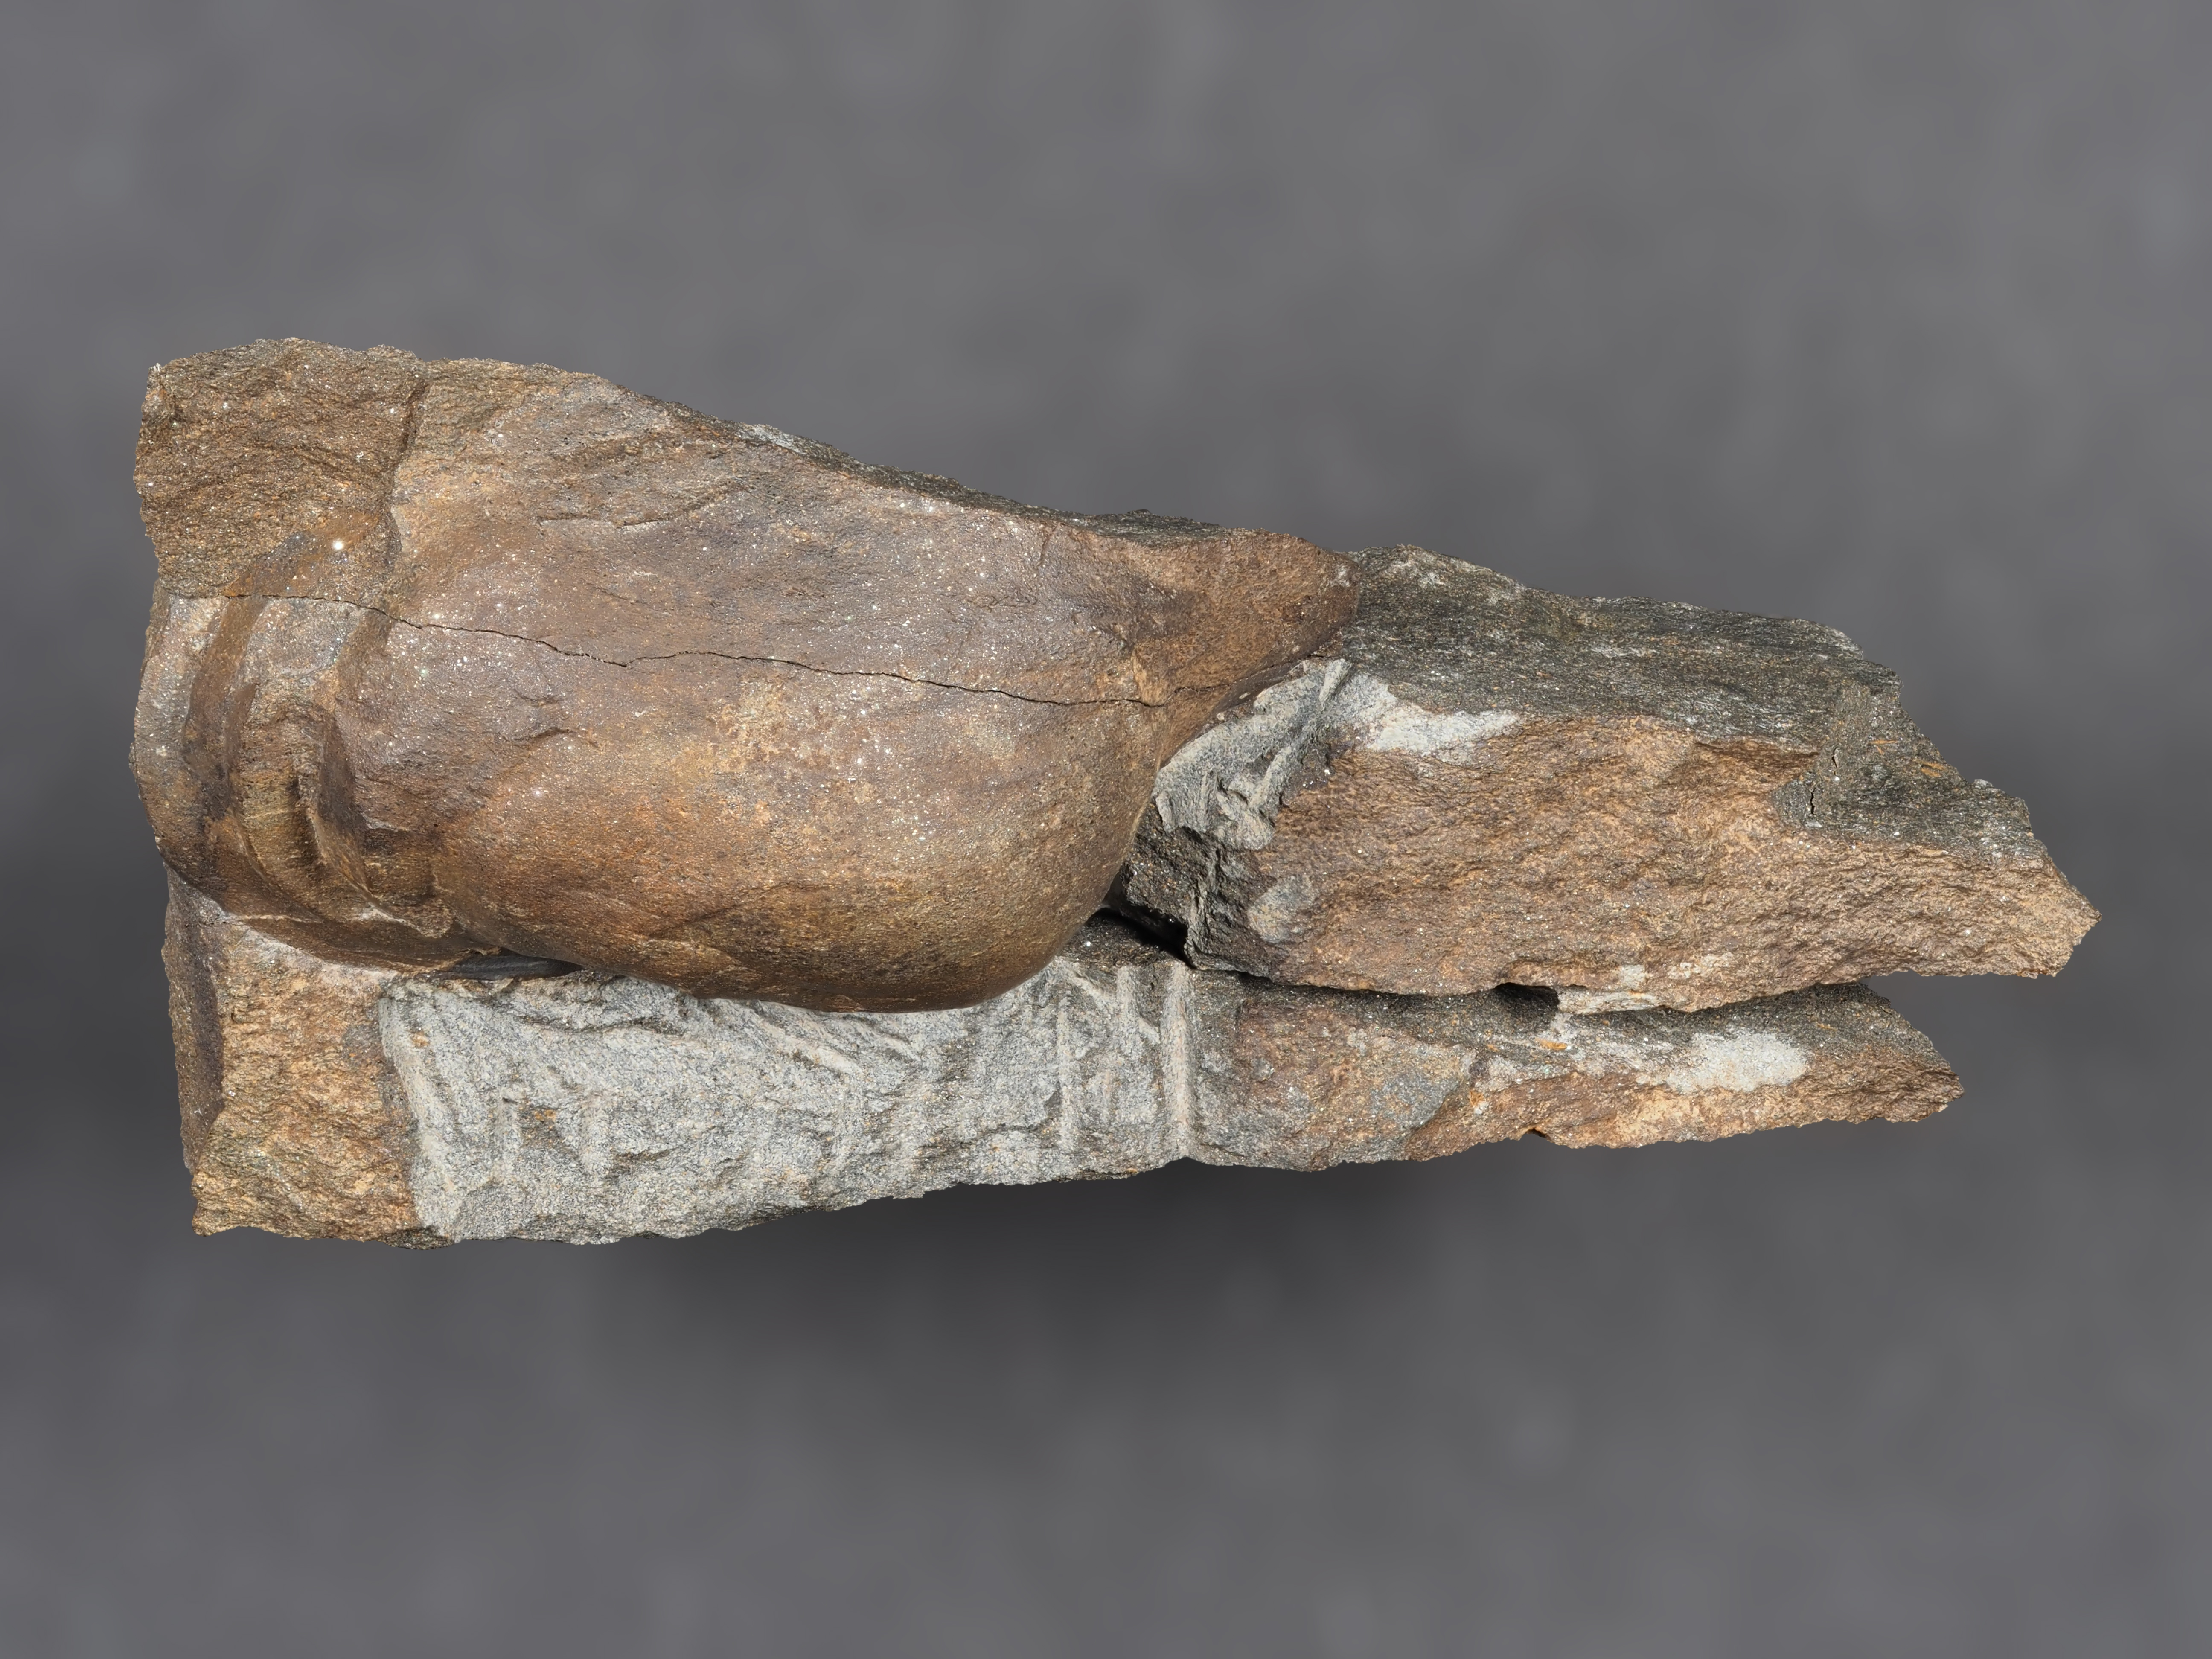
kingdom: Animalia
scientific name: Animalia
